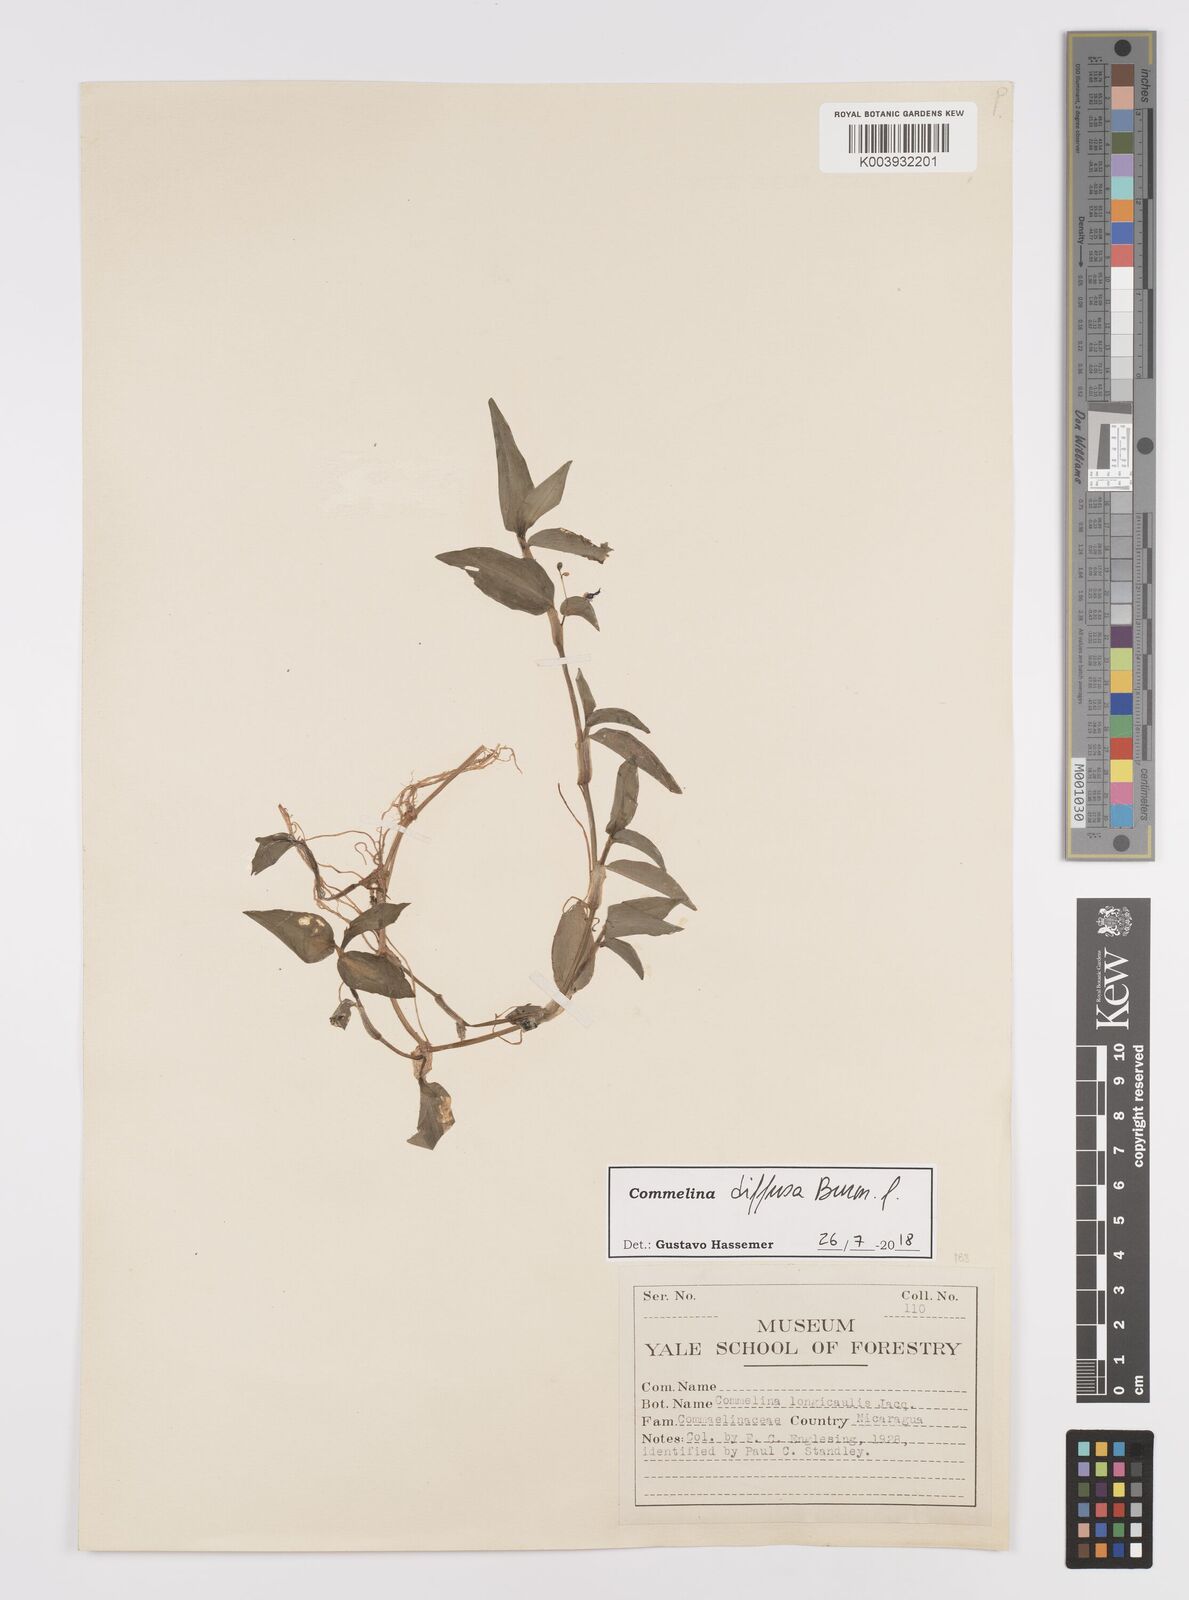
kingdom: Plantae
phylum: Tracheophyta
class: Liliopsida
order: Commelinales
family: Commelinaceae
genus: Commelina
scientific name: Commelina diffusa
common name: Climbing dayflower
